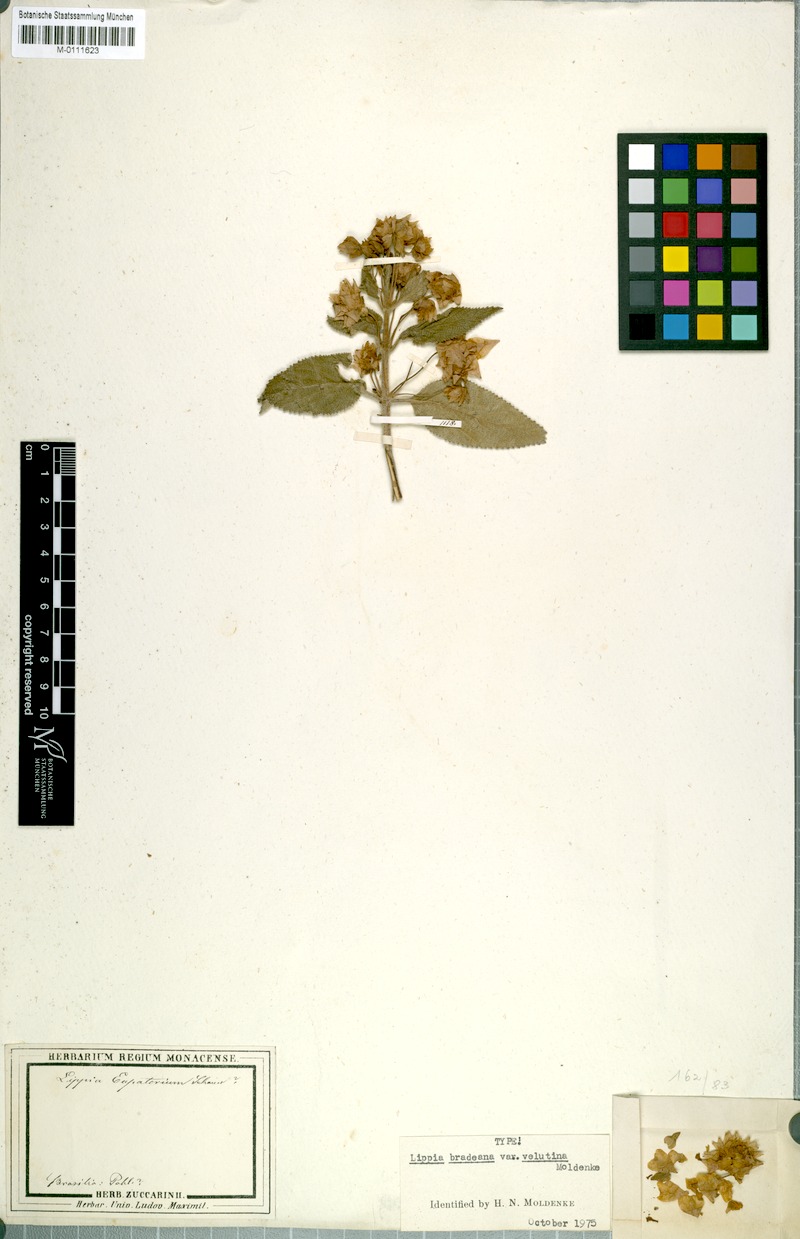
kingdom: Plantae
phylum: Tracheophyta
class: Magnoliopsida
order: Lamiales
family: Verbenaceae
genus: Lippia
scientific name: Lippia lupulina
